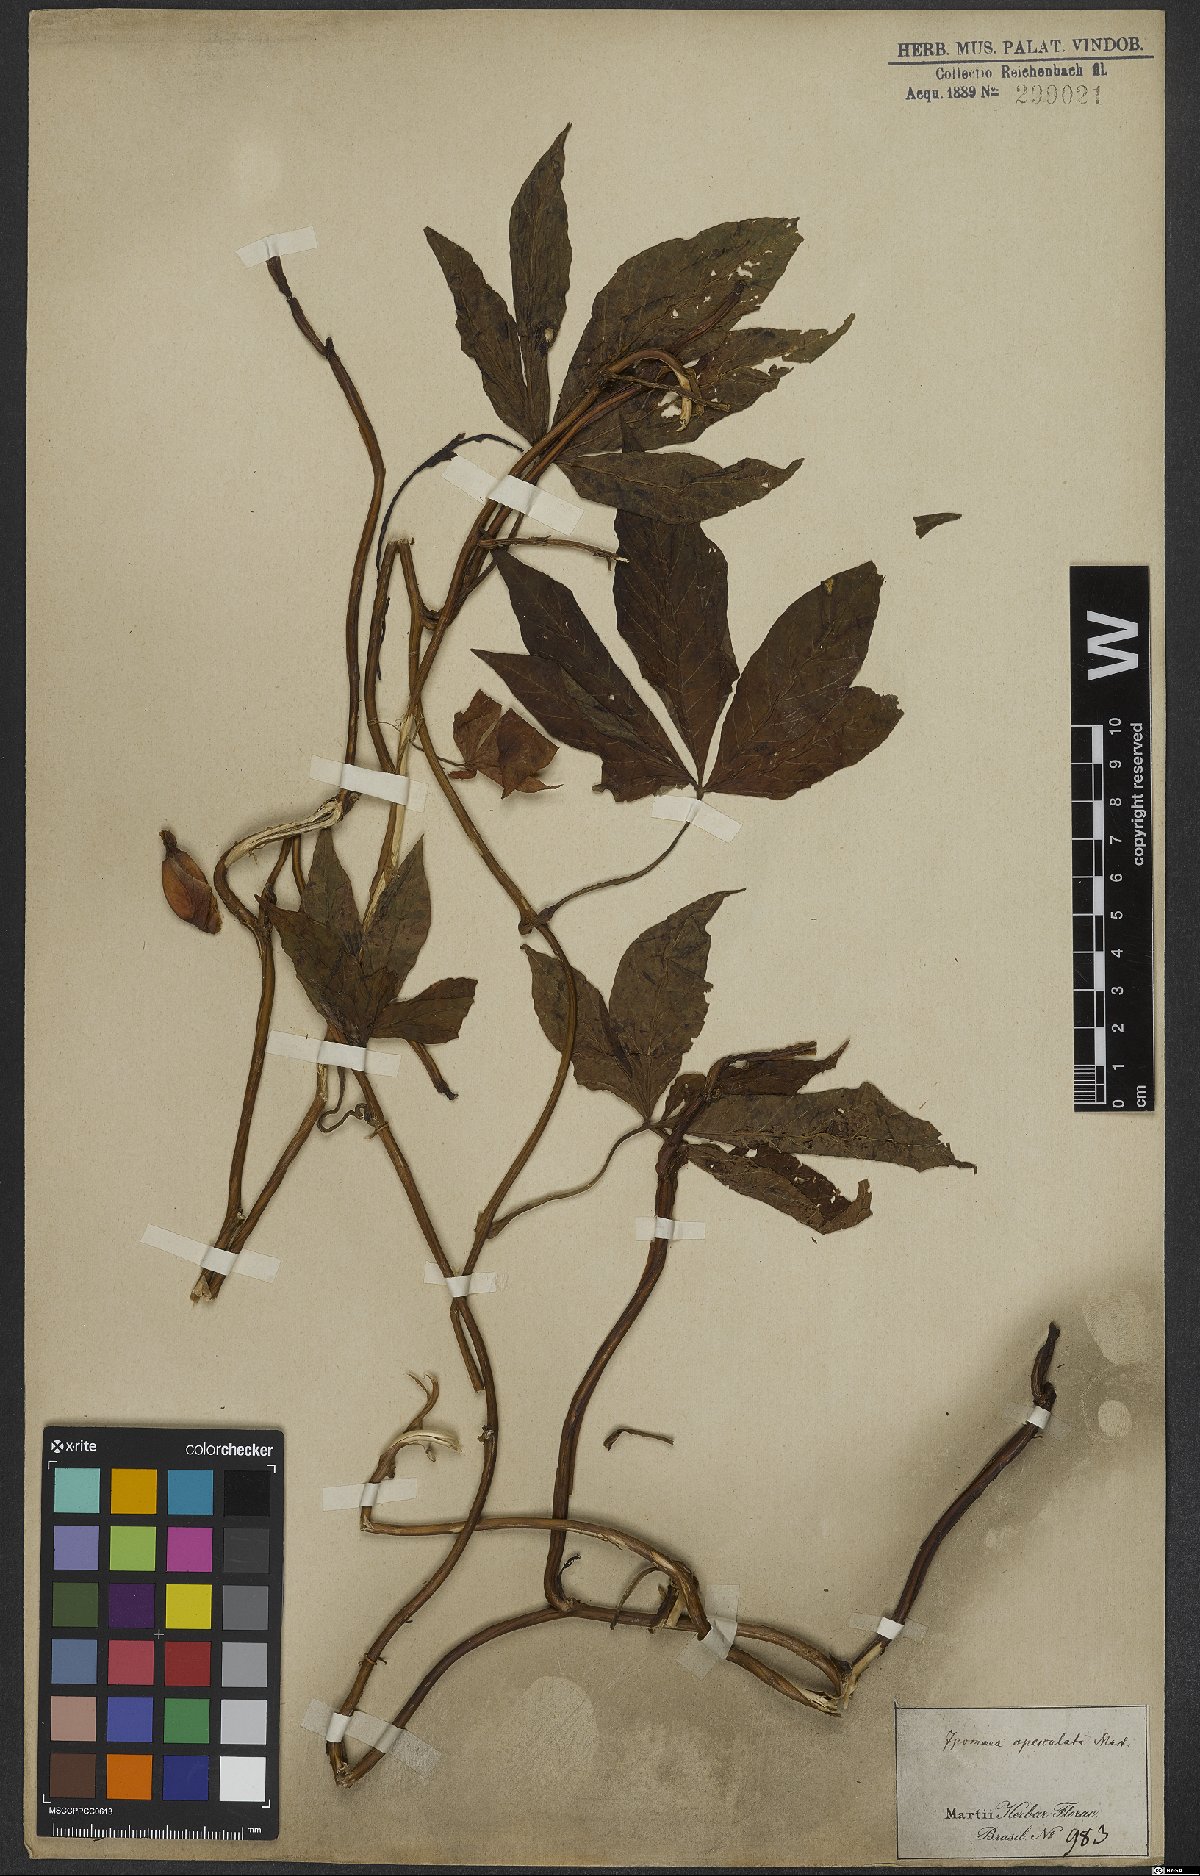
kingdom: Plantae
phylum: Tracheophyta
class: Magnoliopsida
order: Solanales
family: Convolvulaceae
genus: Operculina
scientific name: Operculina macrocarpa
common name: Brazilian jalap
